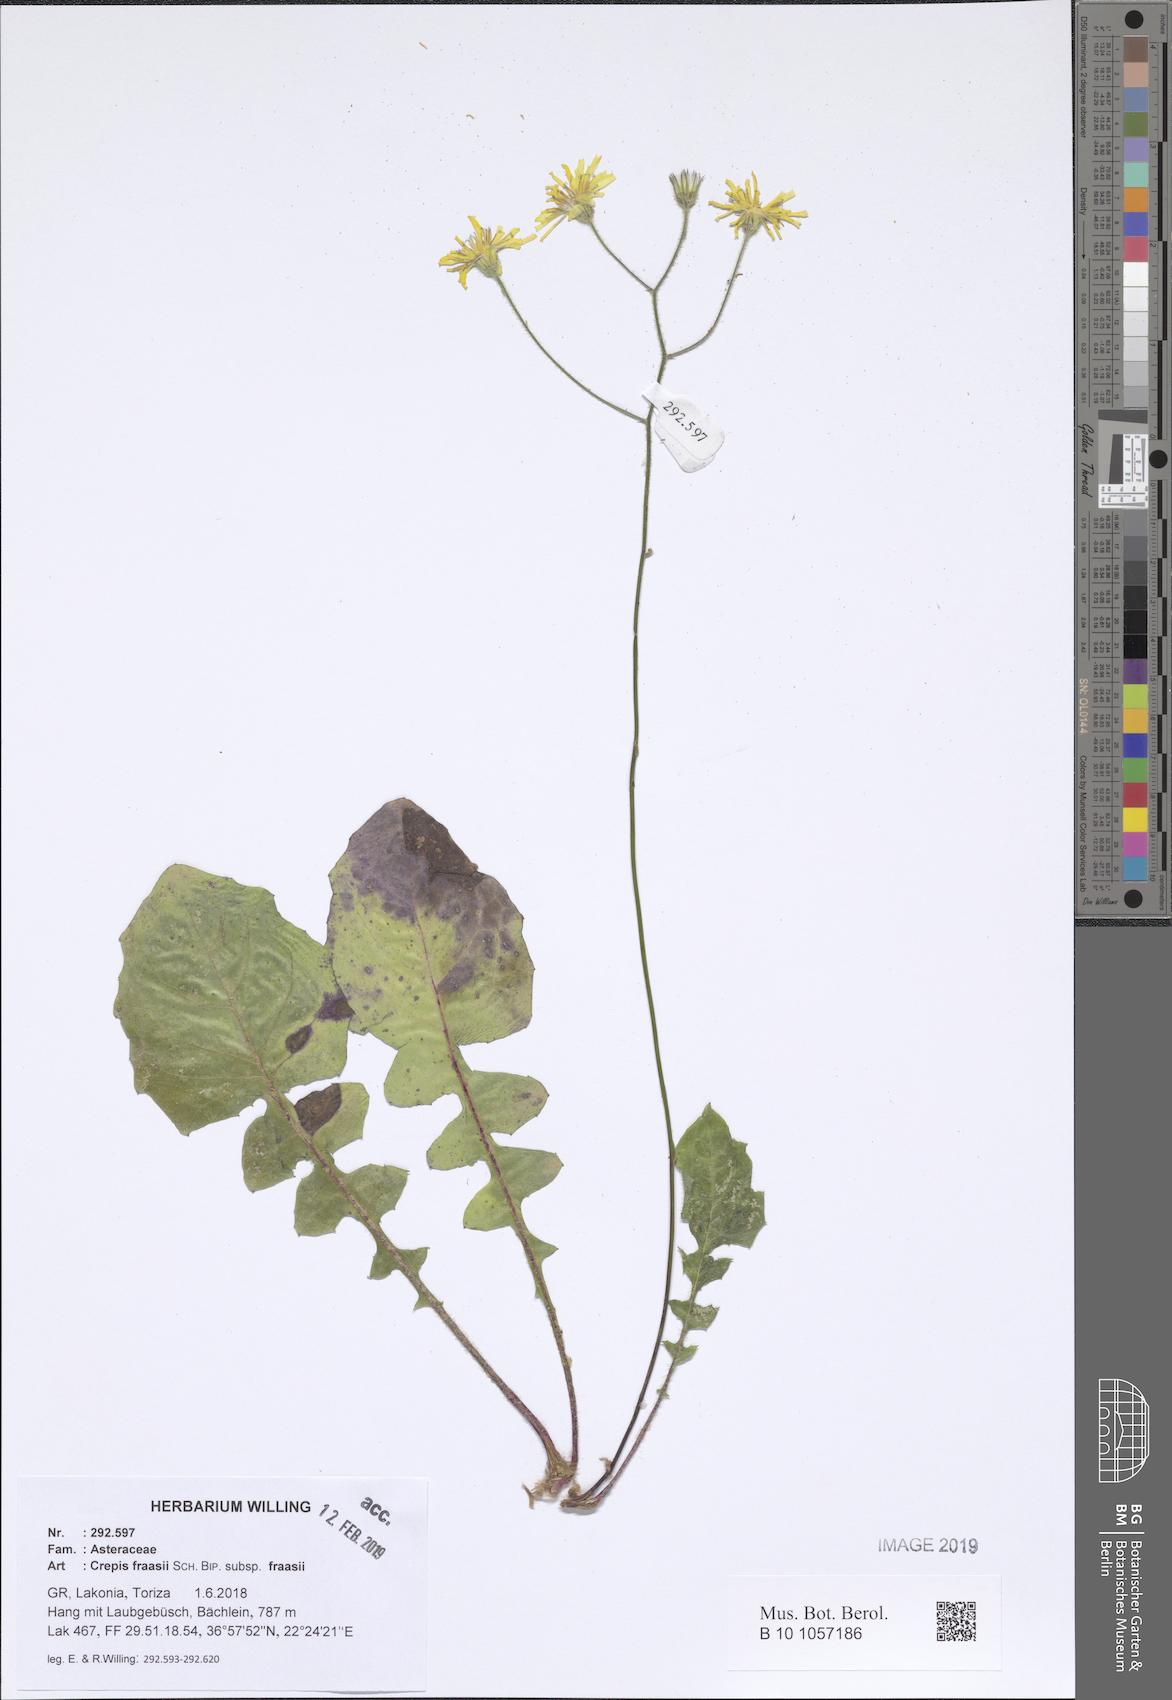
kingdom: Plantae
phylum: Tracheophyta
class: Magnoliopsida
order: Asterales
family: Asteraceae
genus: Crepis
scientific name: Crepis fraasii
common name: Hawk's-beard
